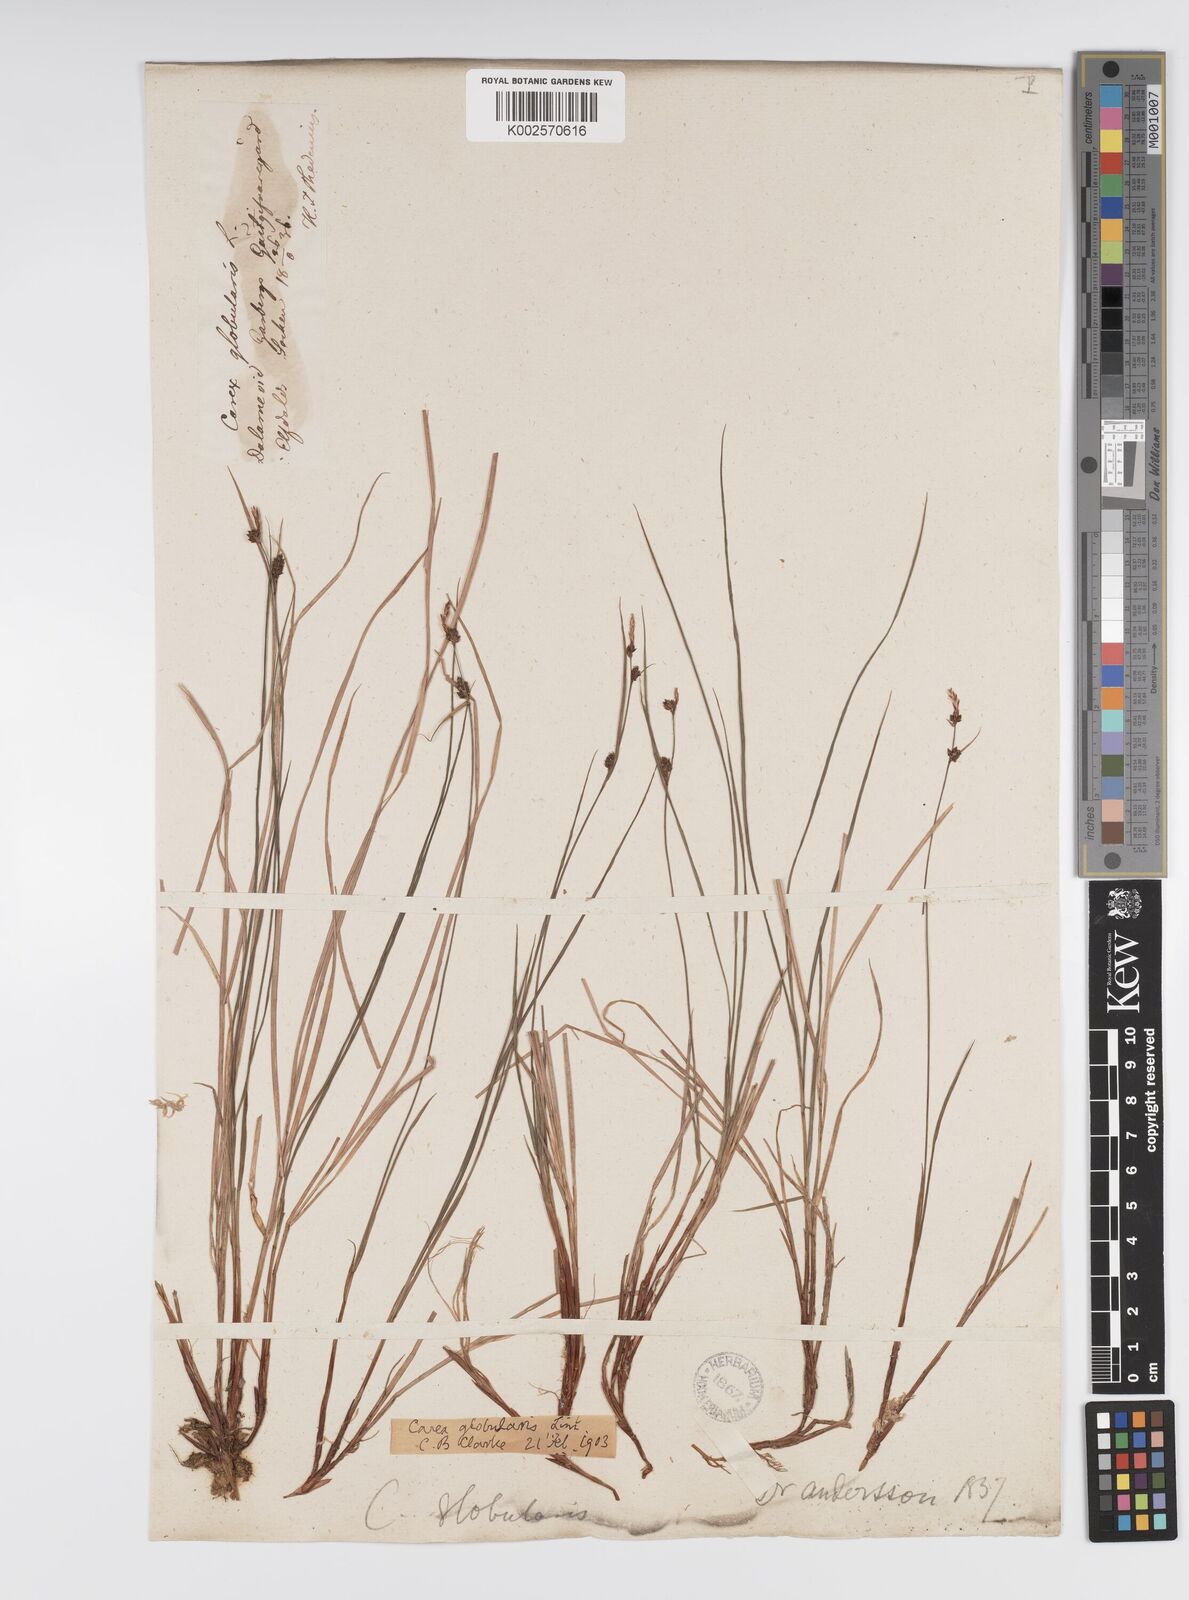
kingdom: Plantae
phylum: Tracheophyta
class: Liliopsida
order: Poales
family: Cyperaceae
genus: Carex
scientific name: Carex globularis
